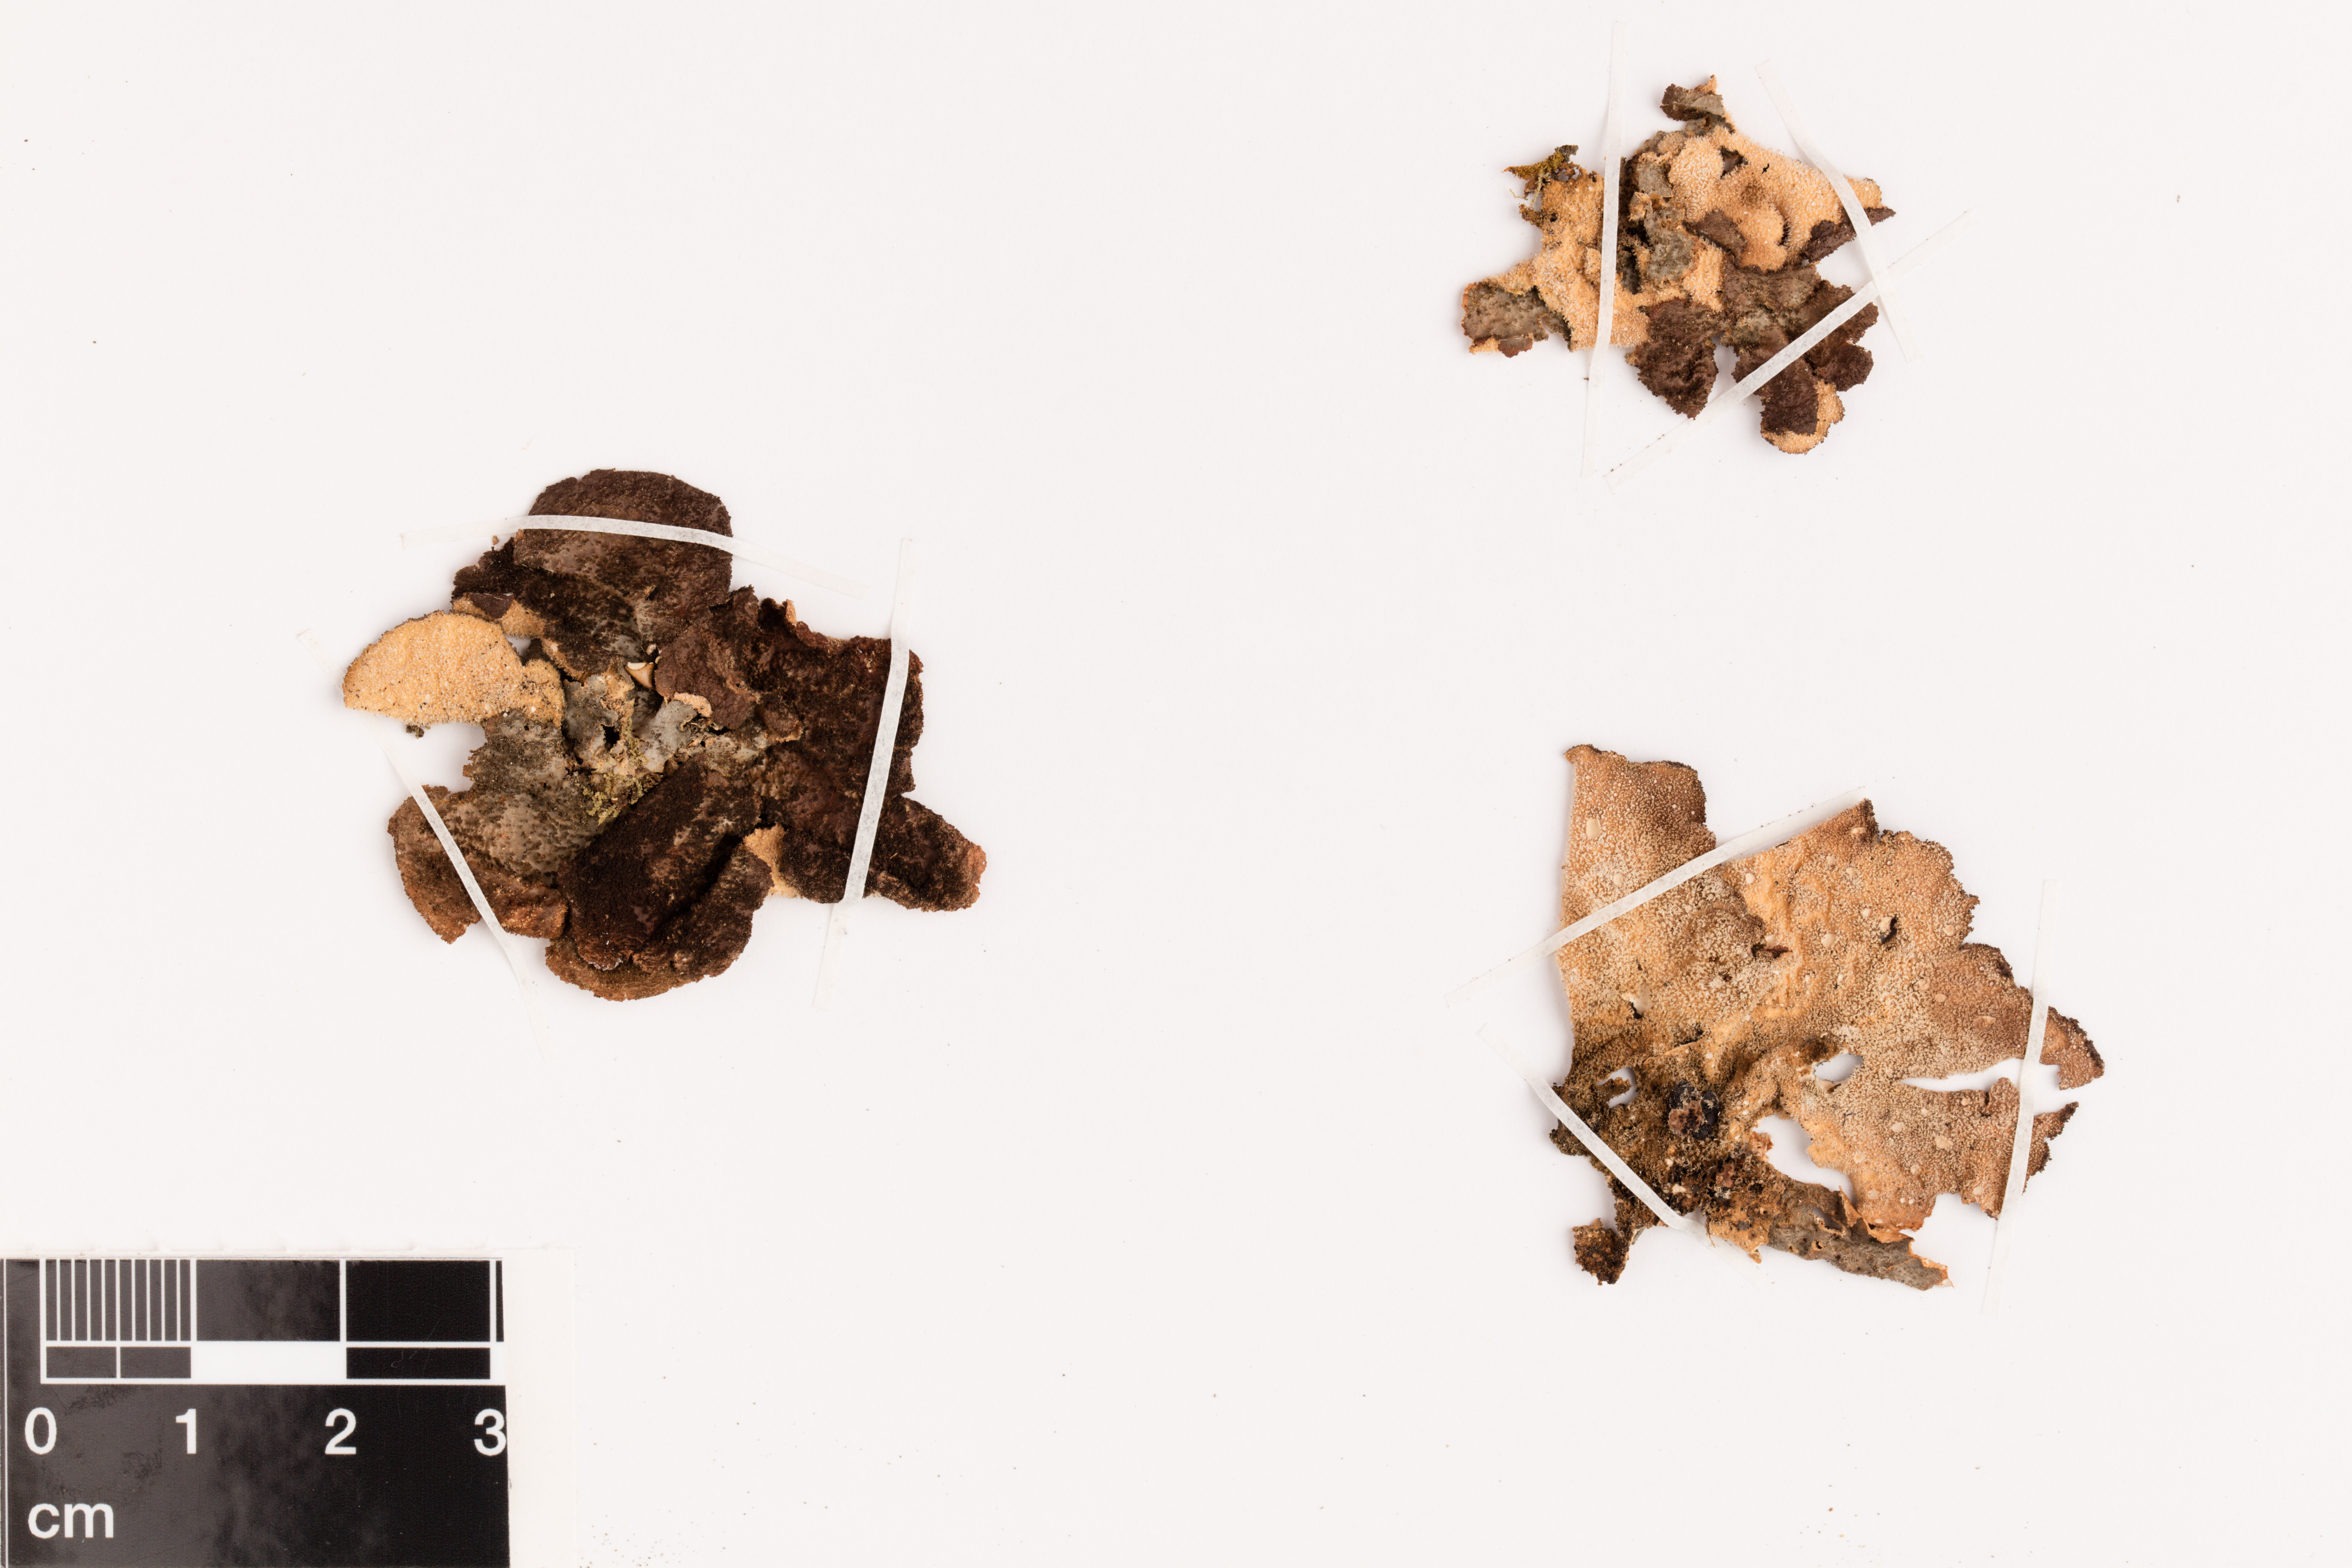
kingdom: Fungi
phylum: Ascomycota
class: Lecanoromycetes
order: Peltigerales
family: Lobariaceae
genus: Sticta
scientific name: Sticta fuliginosa
